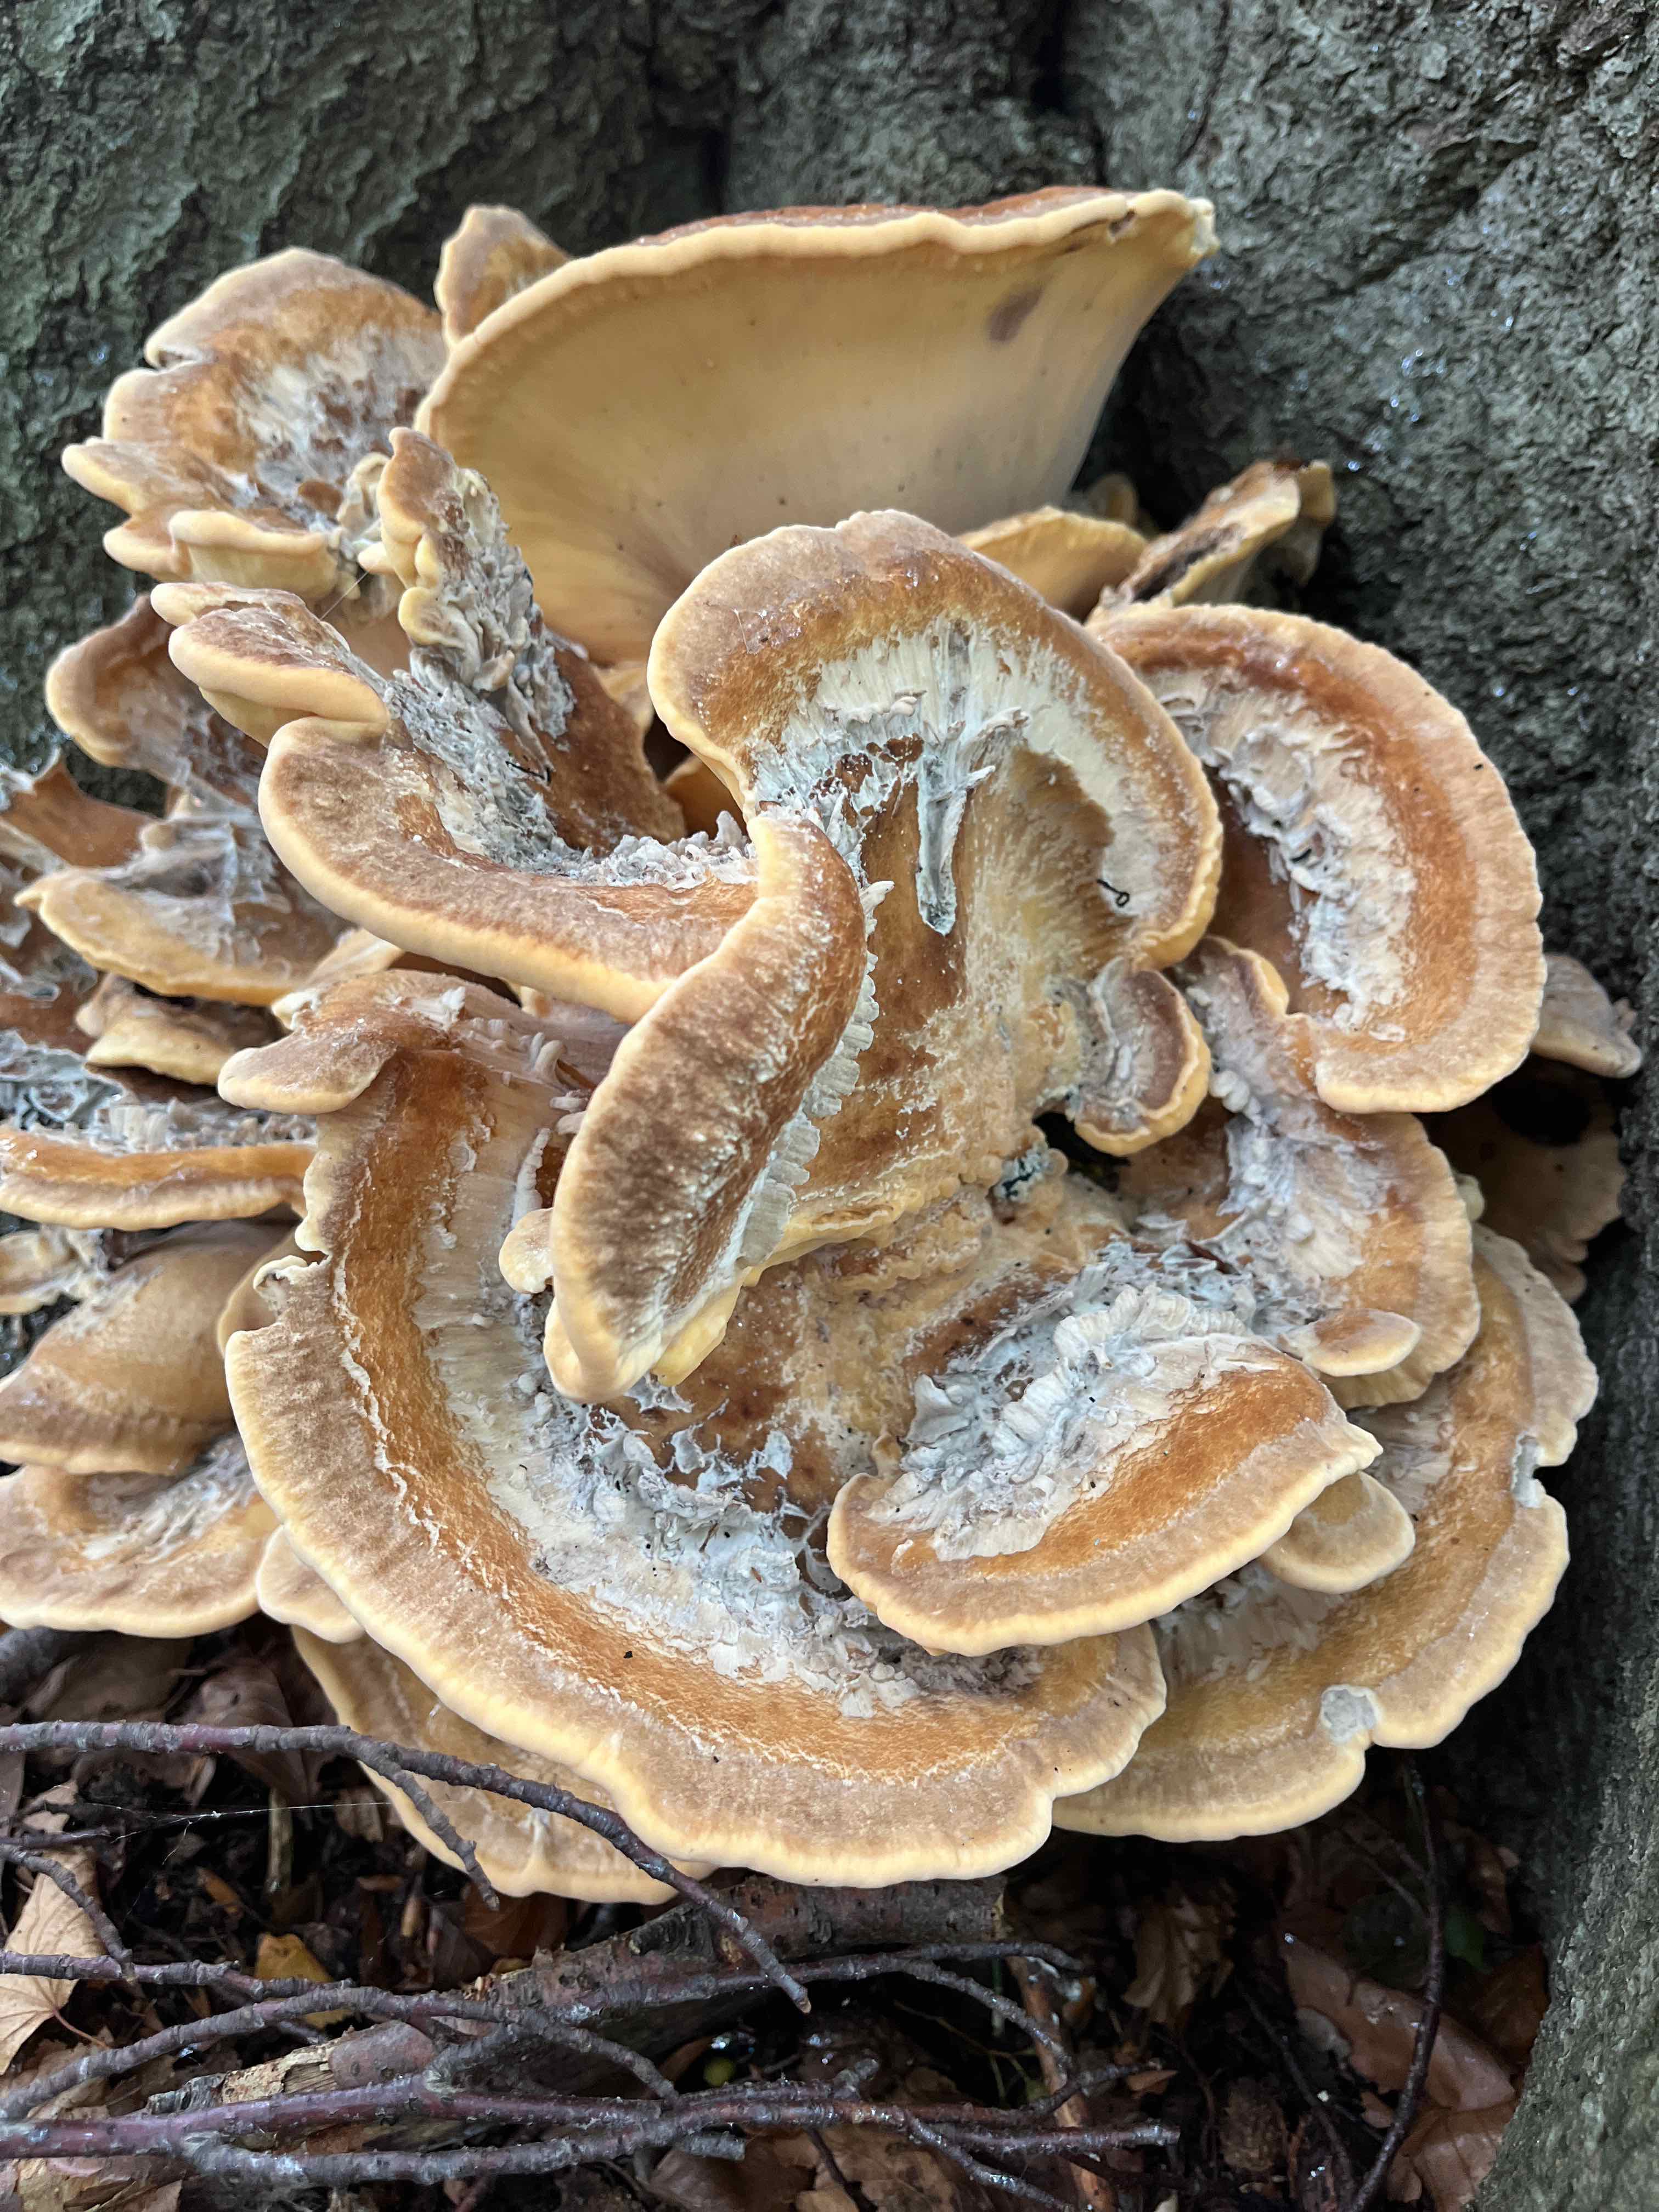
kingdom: Fungi
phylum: Basidiomycota
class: Agaricomycetes
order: Polyporales
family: Meripilaceae
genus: Meripilus
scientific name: Meripilus giganteus
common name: kæmpeporesvamp
